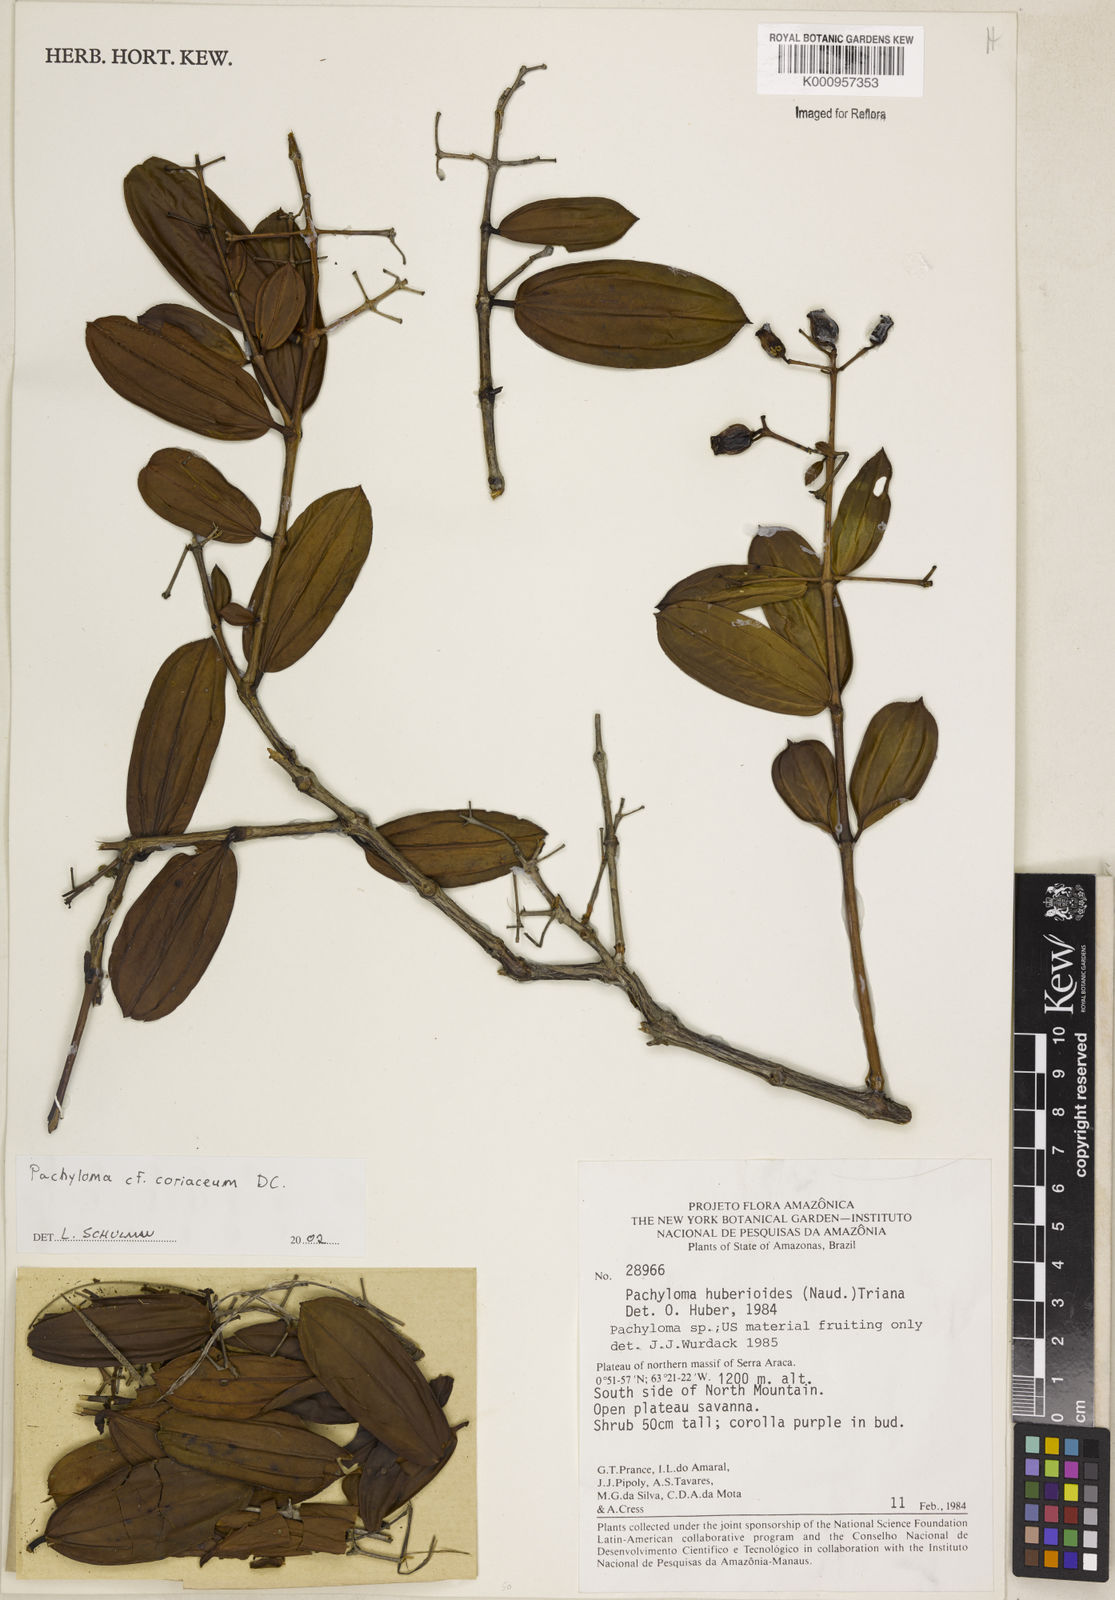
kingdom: Plantae
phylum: Tracheophyta
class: Magnoliopsida
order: Myrtales
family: Melastomataceae
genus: Pachyloma
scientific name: Pachyloma coriaceum
